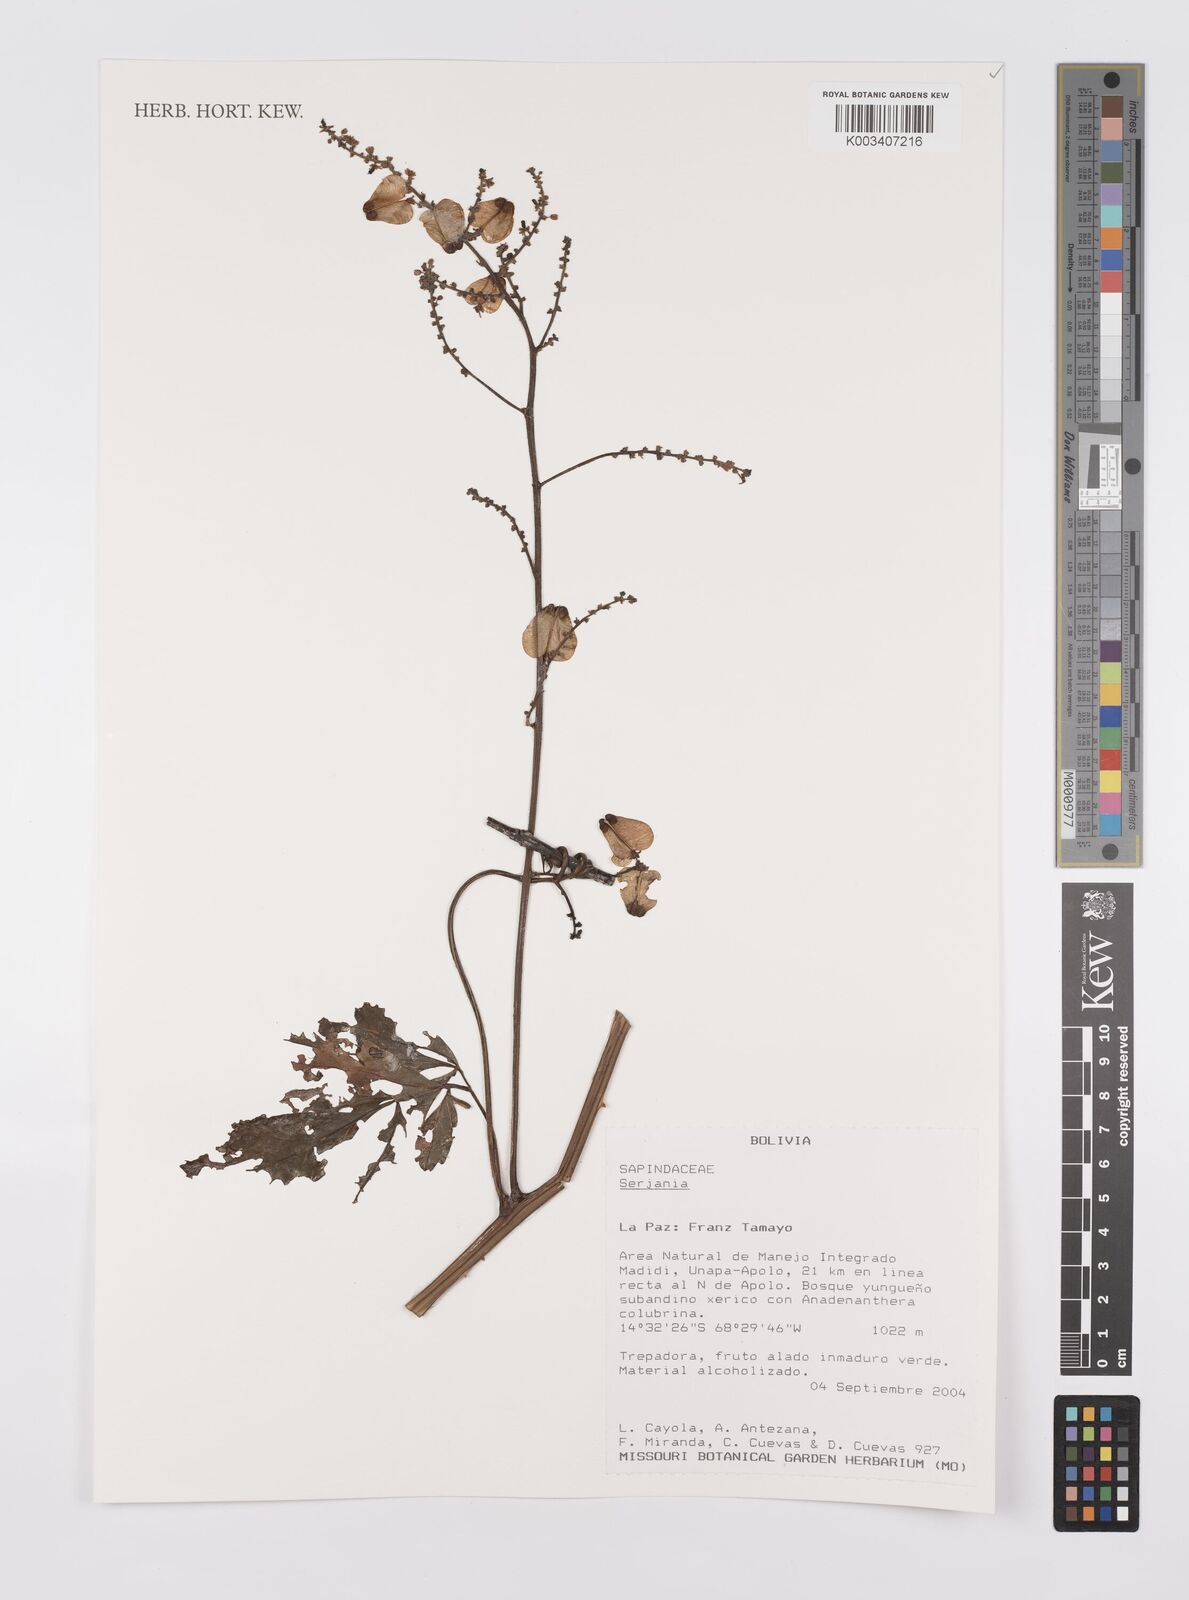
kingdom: Plantae
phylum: Tracheophyta
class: Magnoliopsida
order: Sapindales
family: Sapindaceae
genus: Serjania
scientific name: Serjania
